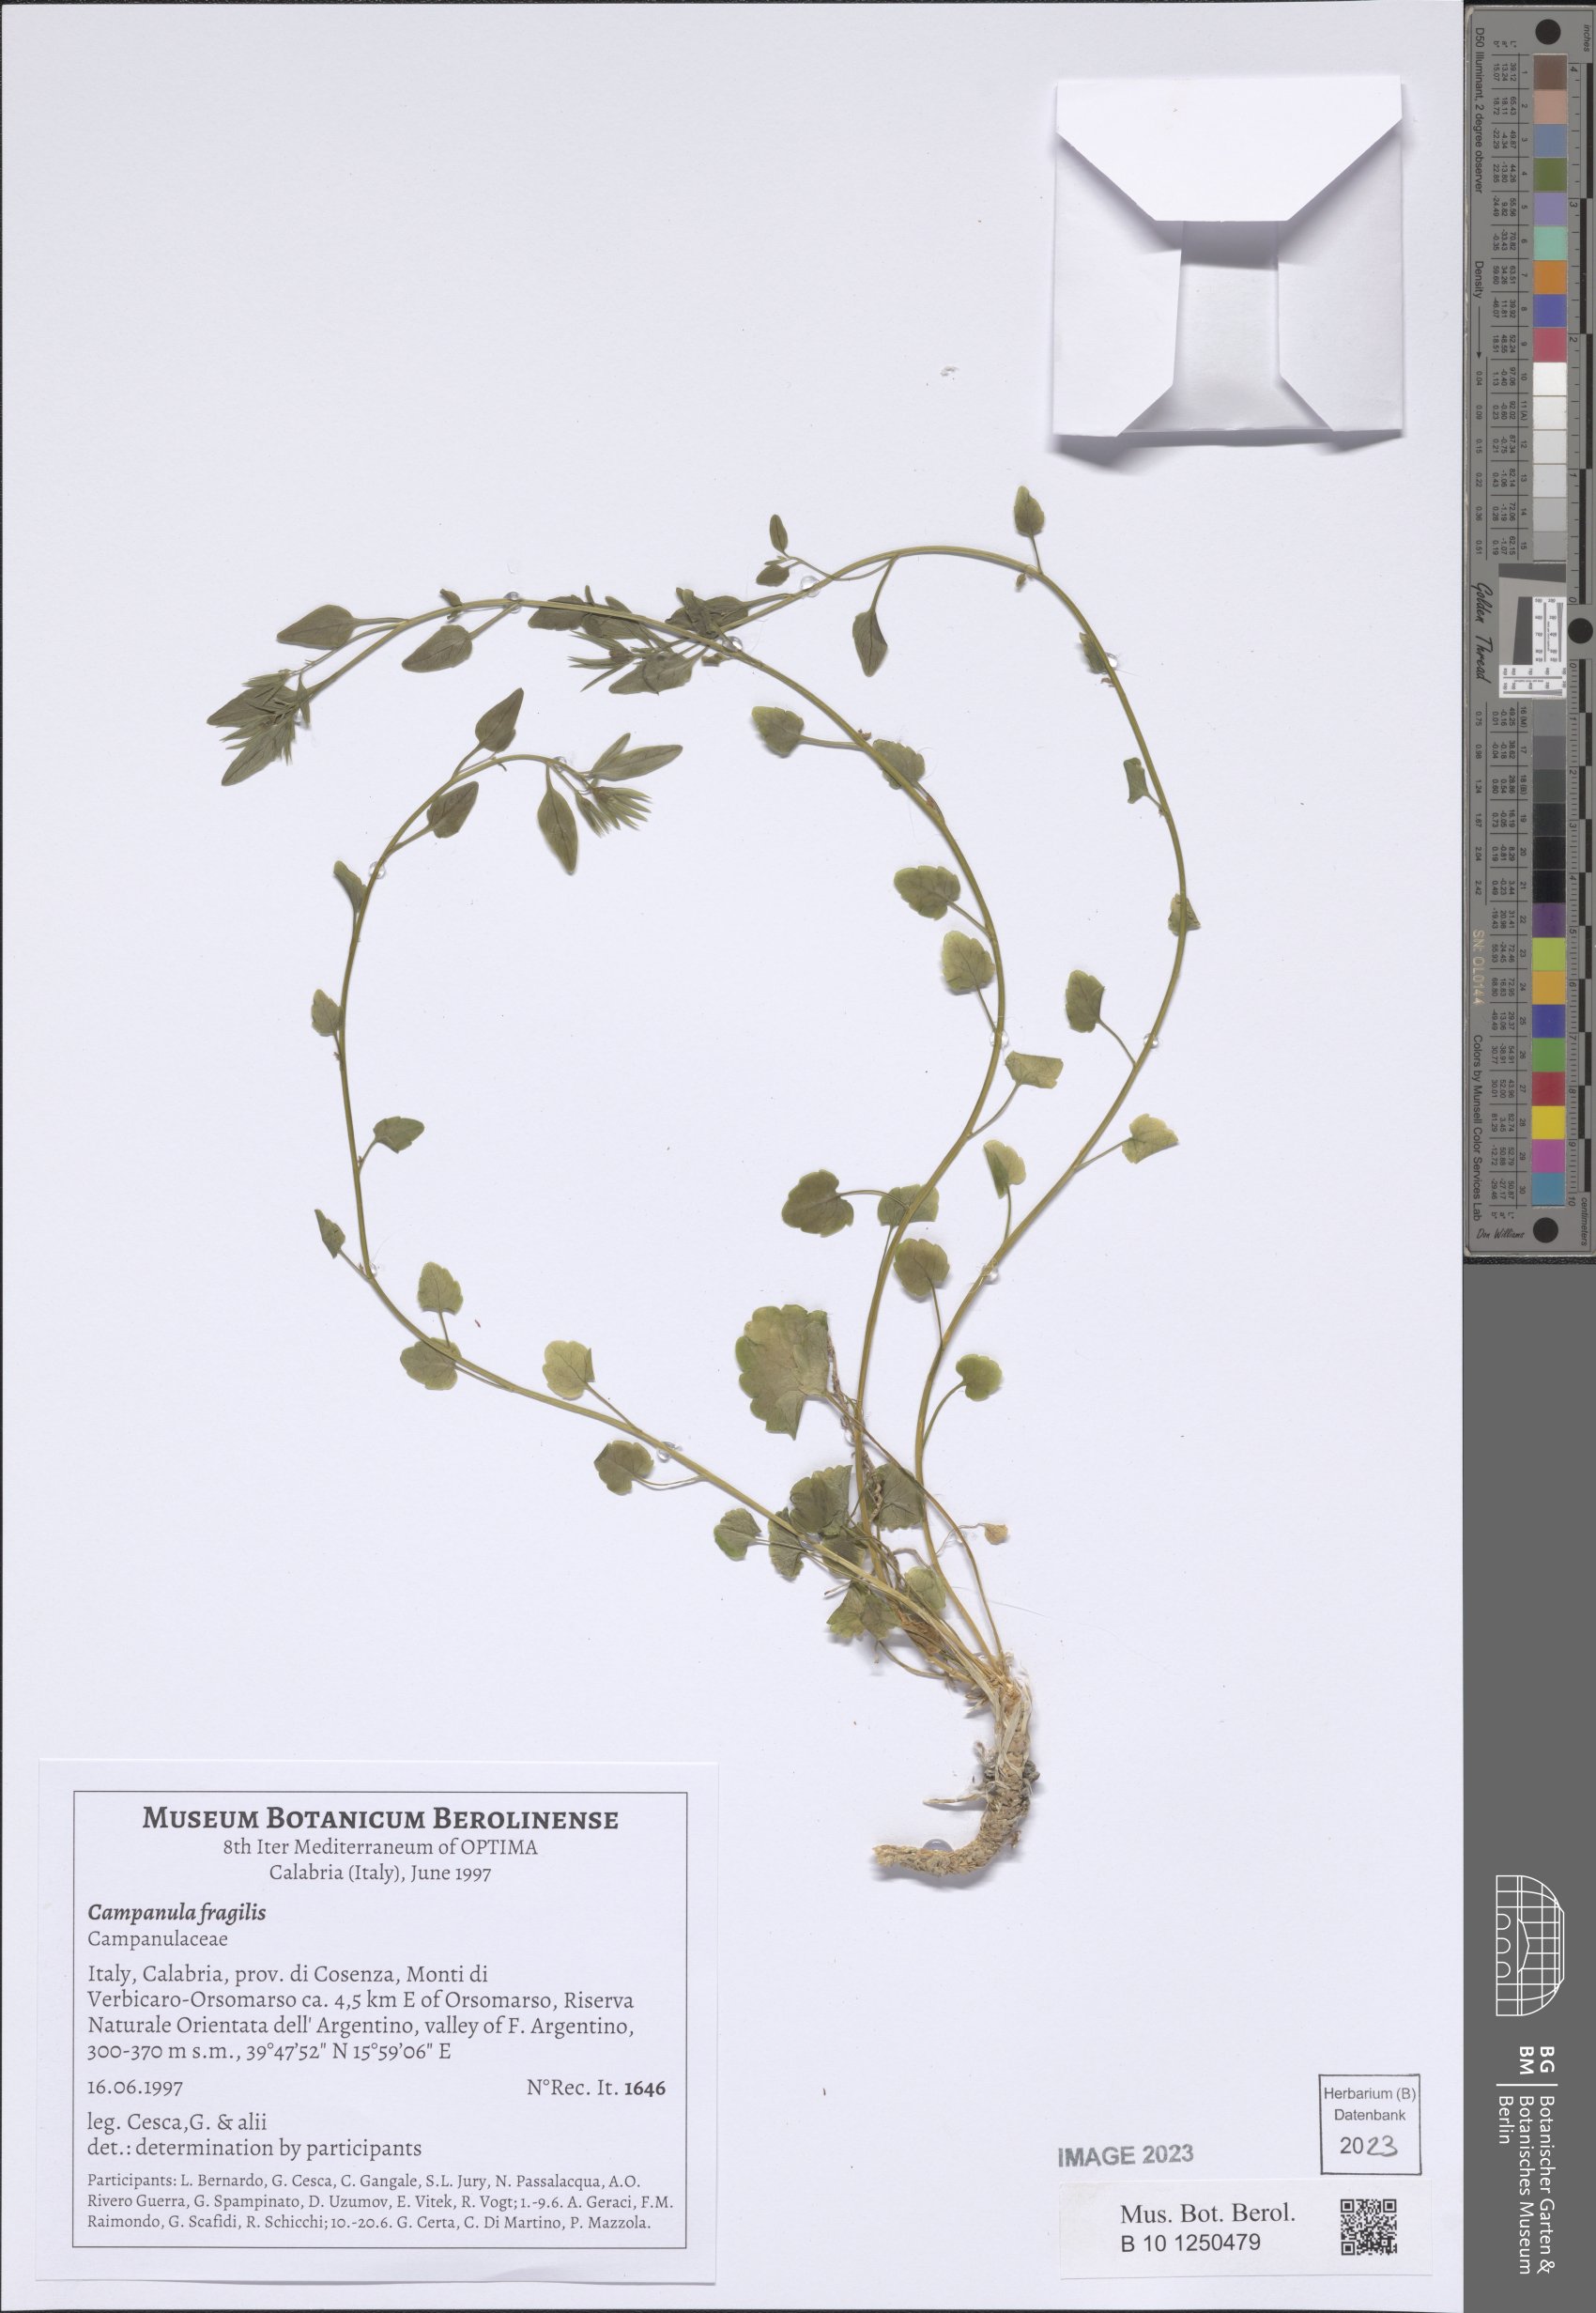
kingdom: Plantae
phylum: Tracheophyta
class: Magnoliopsida
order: Asterales
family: Campanulaceae
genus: Campanula
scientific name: Campanula fragilis
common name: Italian bellflower
